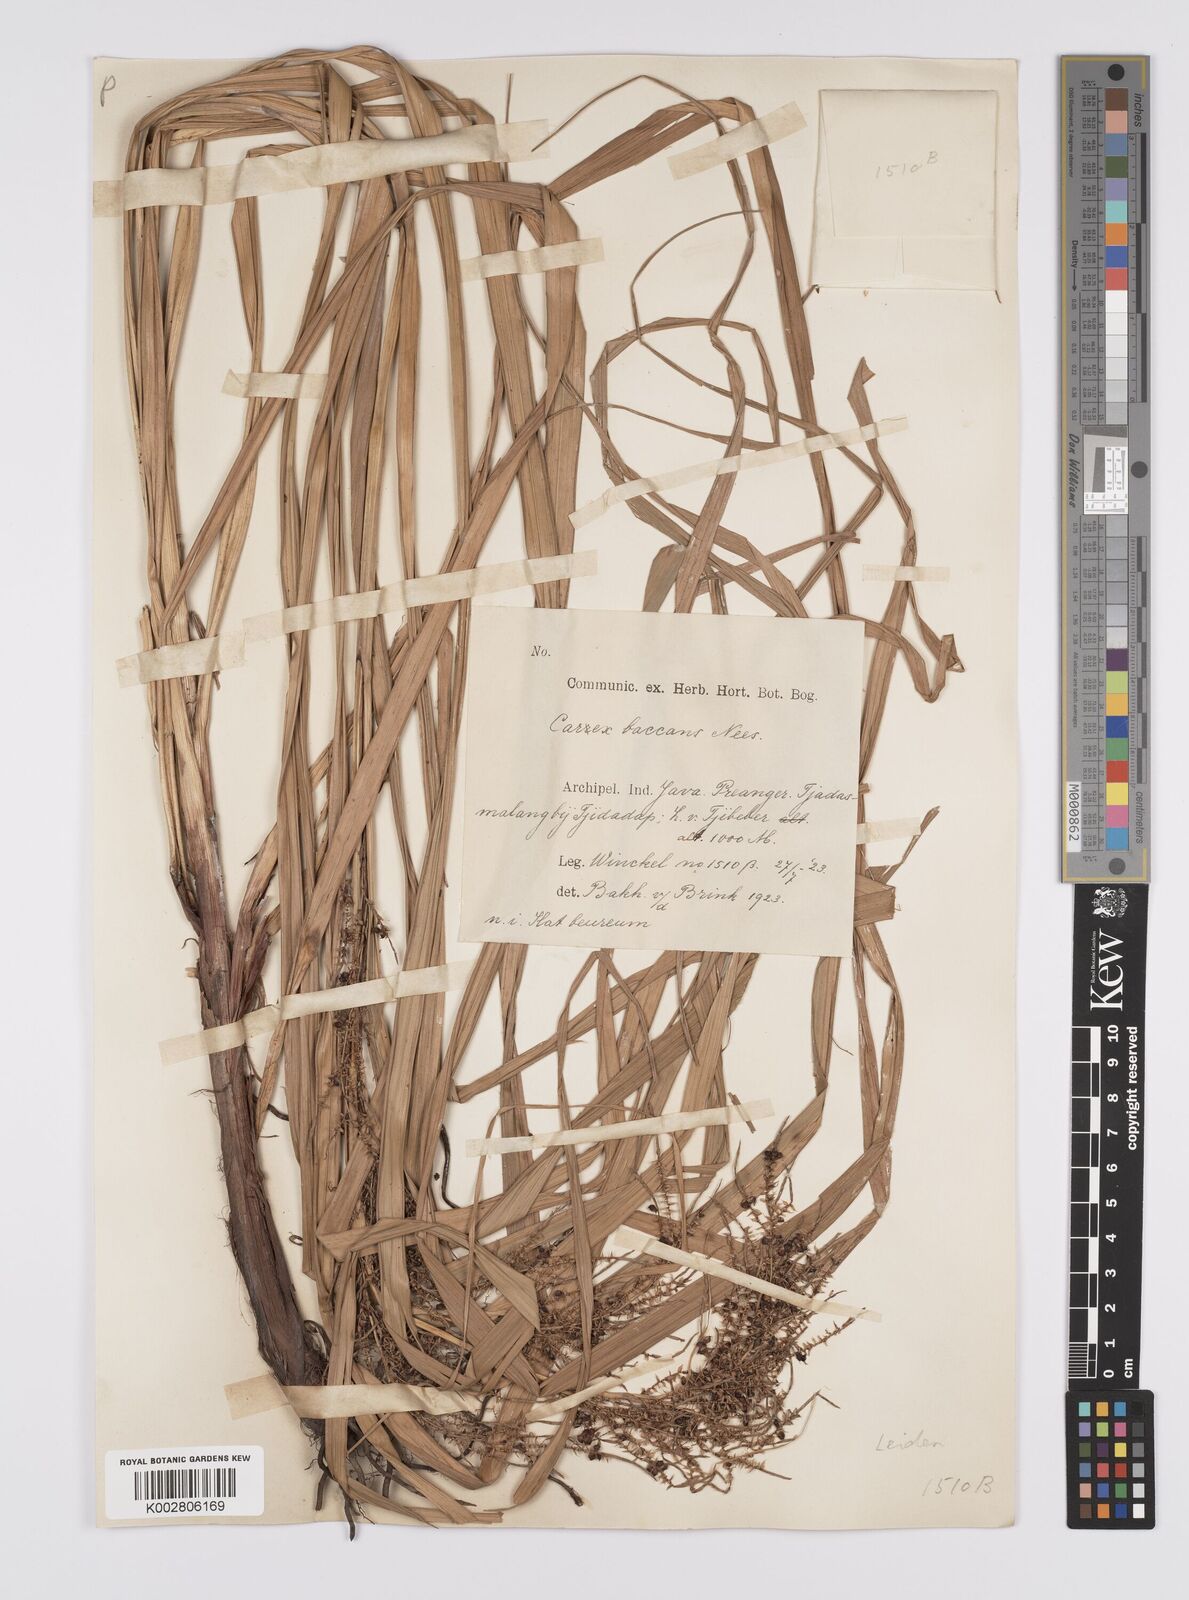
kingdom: Plantae
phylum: Tracheophyta
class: Liliopsida
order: Poales
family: Cyperaceae
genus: Carex
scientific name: Carex baccans
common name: Crimson seeded sedge
